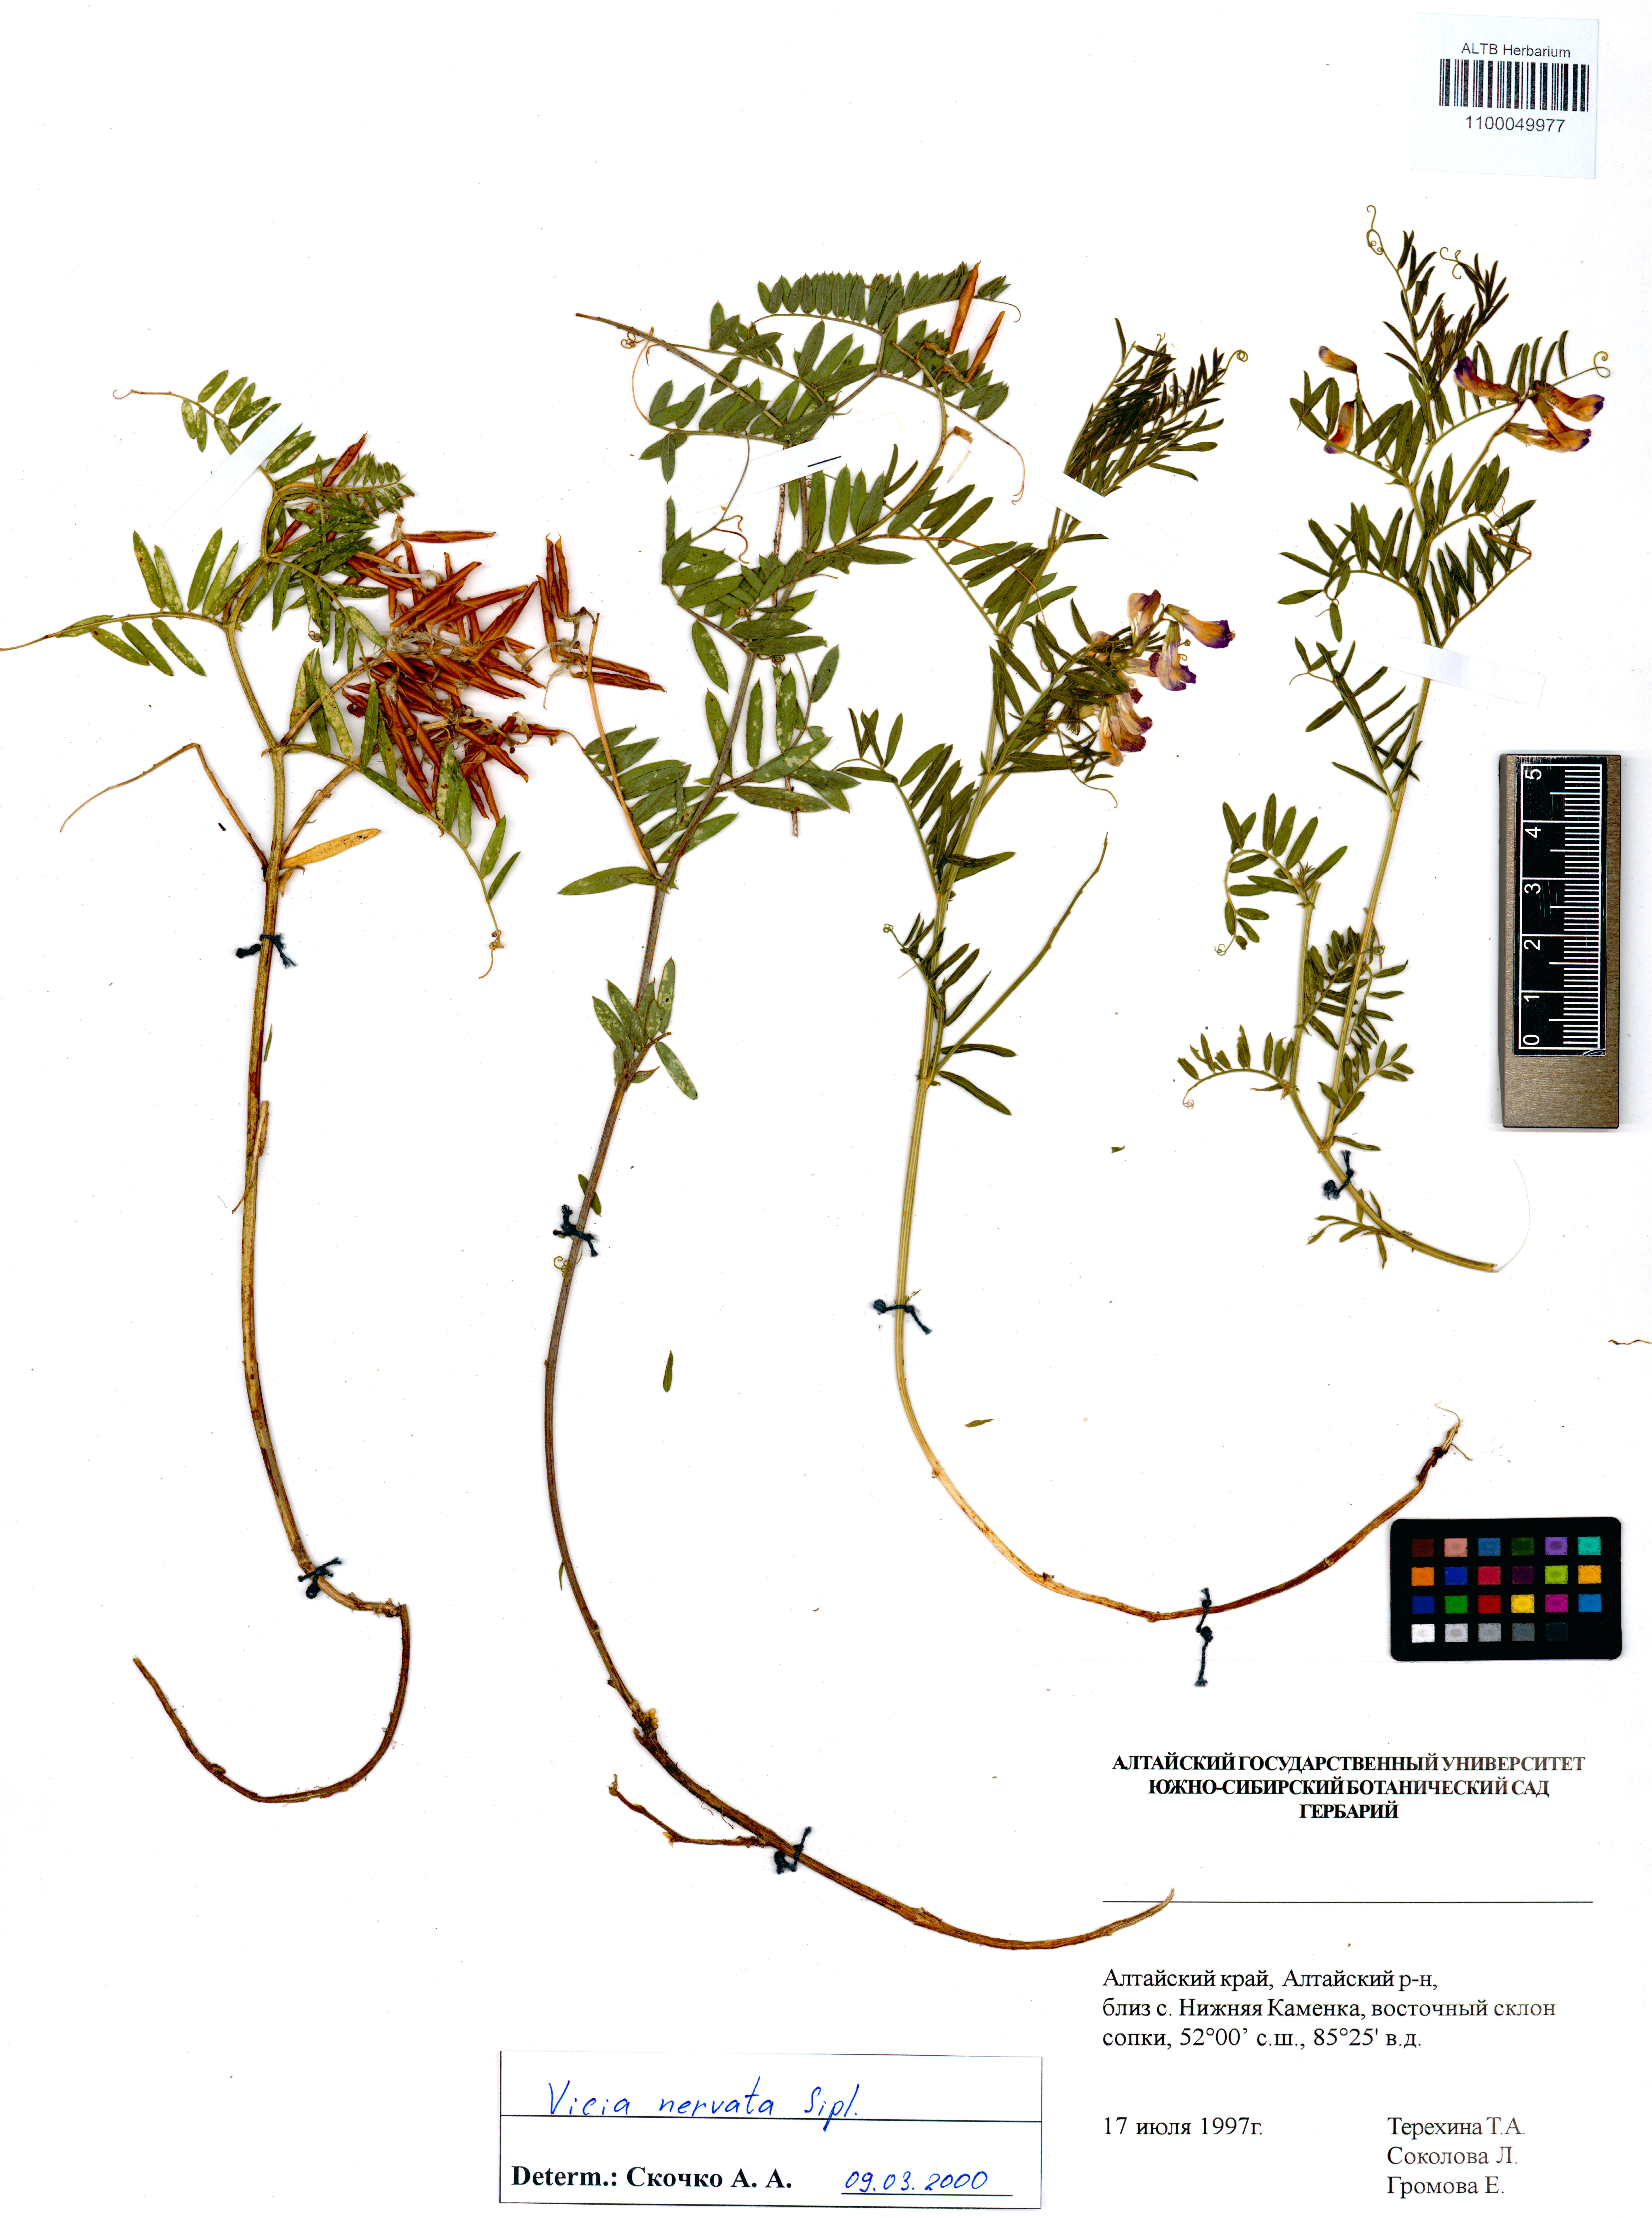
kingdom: Plantae
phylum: Tracheophyta
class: Magnoliopsida
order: Fabales
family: Fabaceae
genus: Vicia
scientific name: Vicia multicaulis
